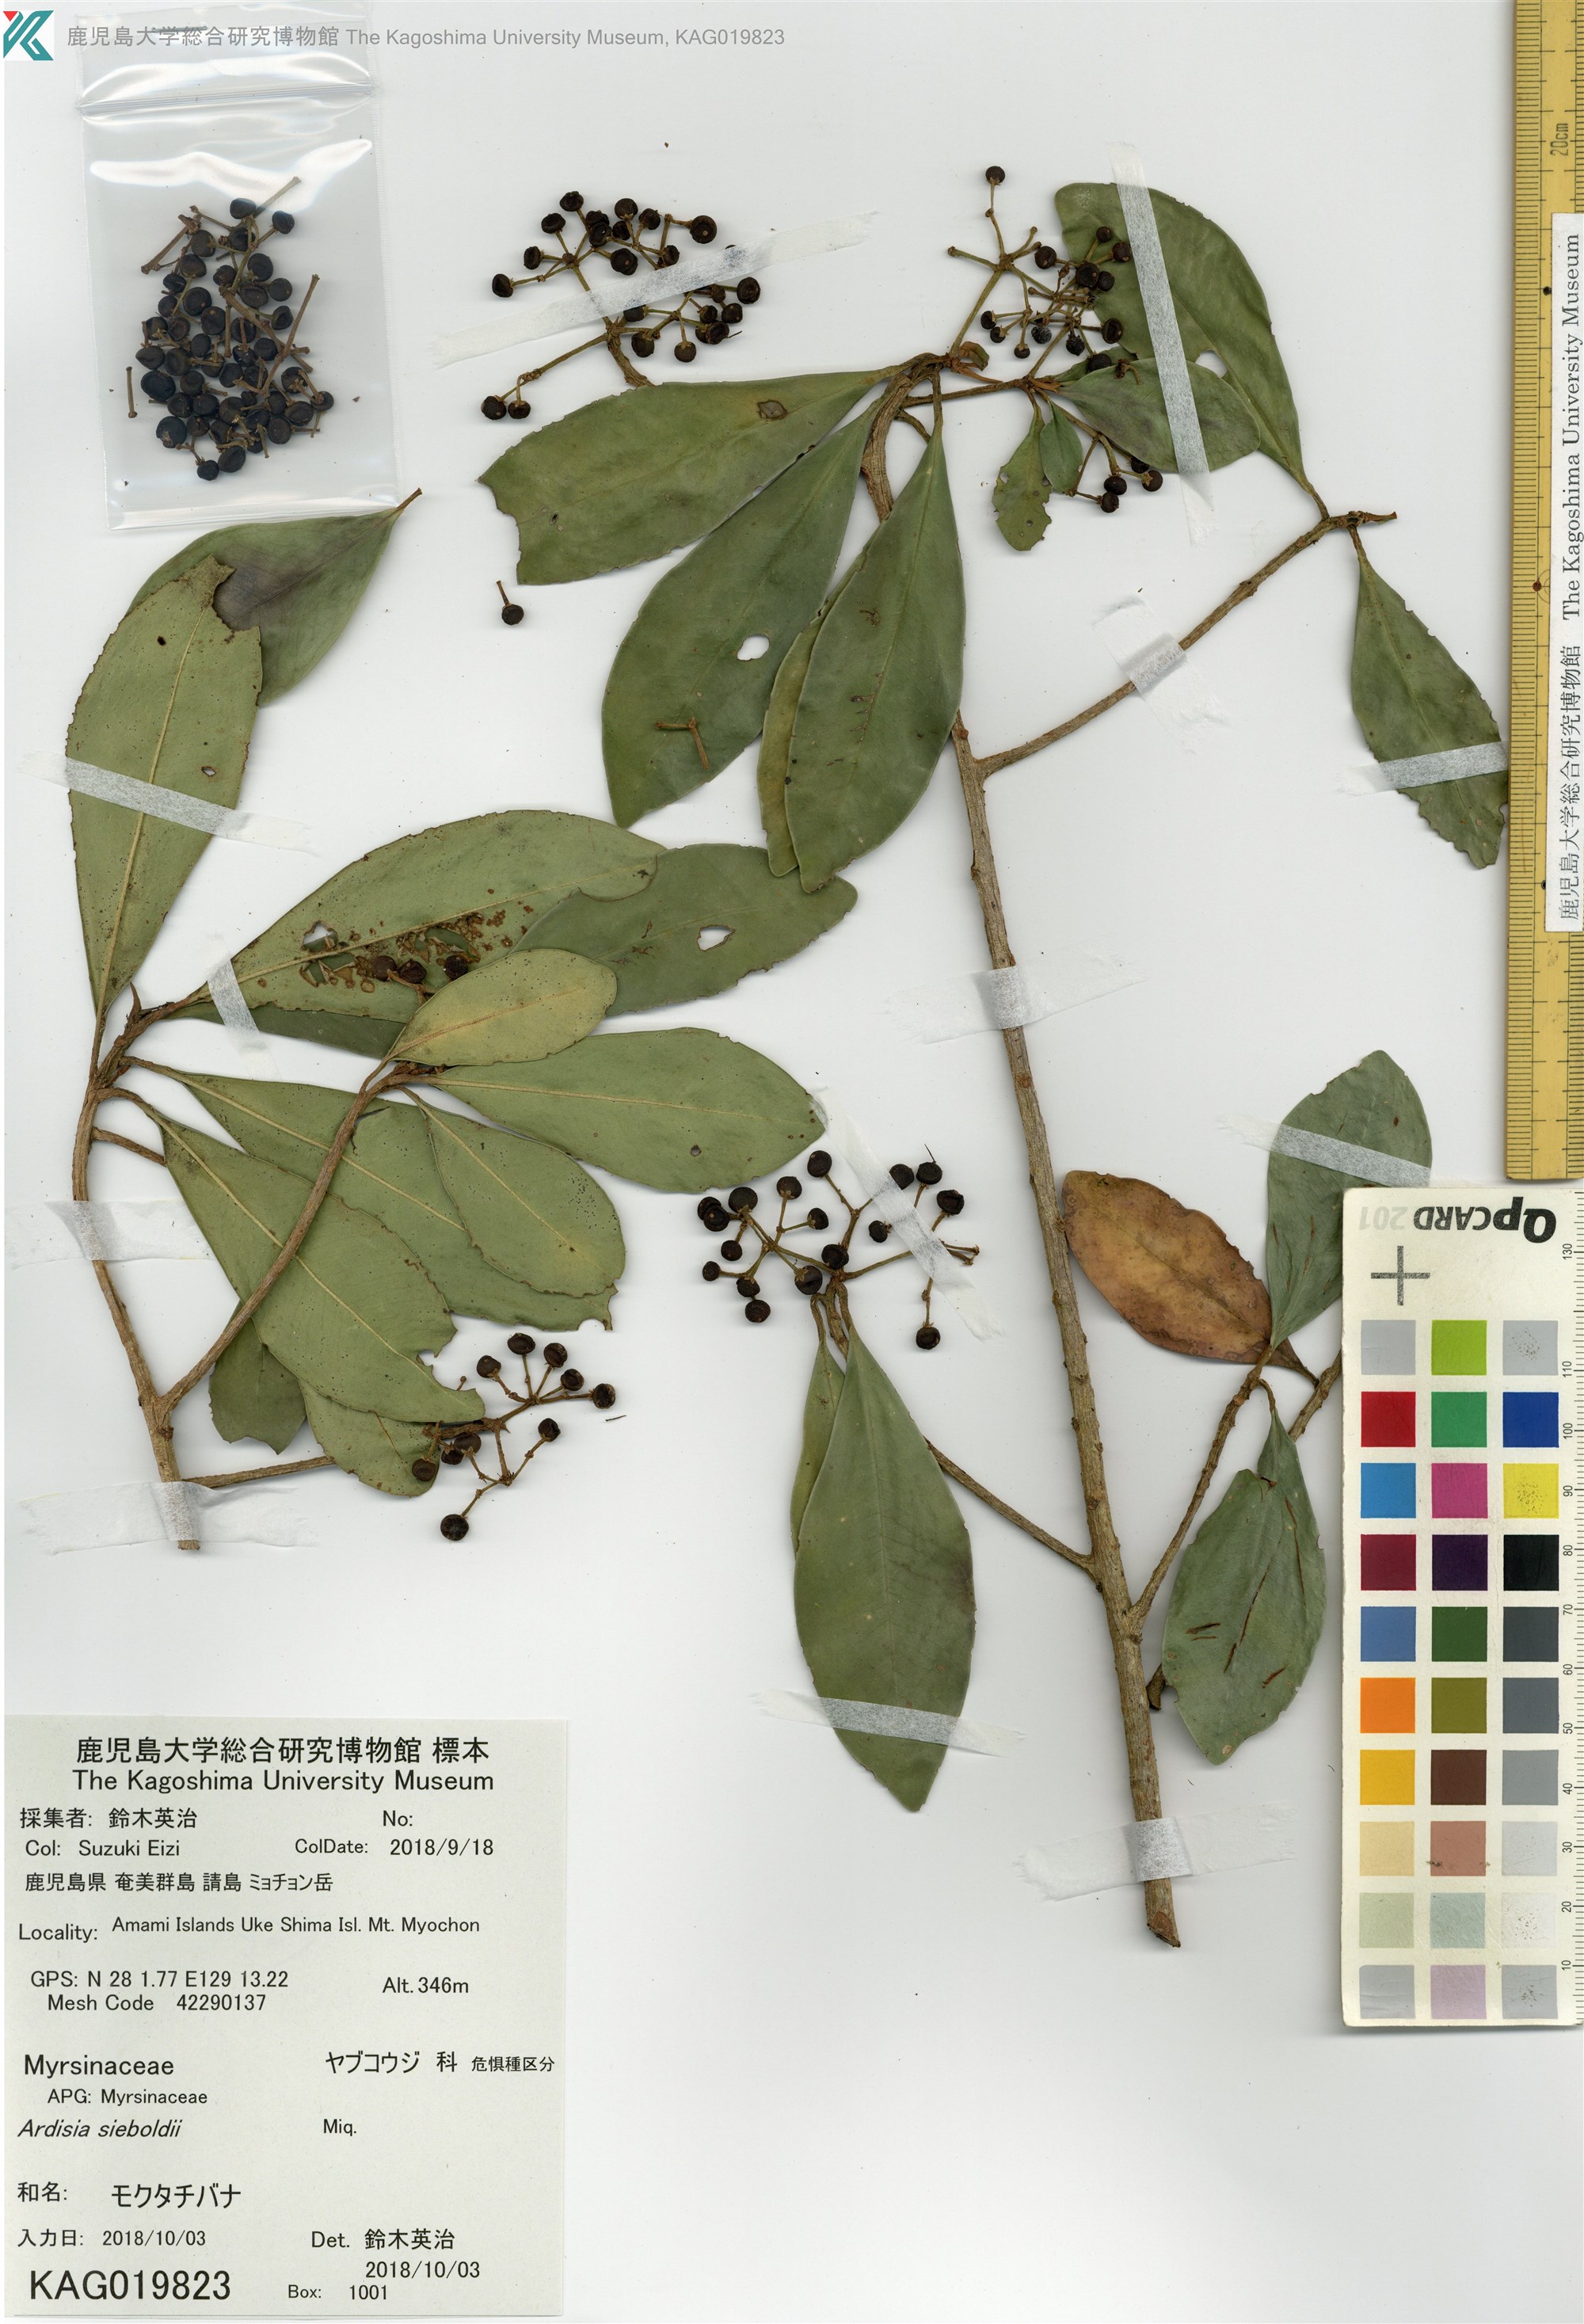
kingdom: Plantae
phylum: Tracheophyta
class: Magnoliopsida
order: Ericales
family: Primulaceae
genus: Ardisia
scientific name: Ardisia sieboldii
